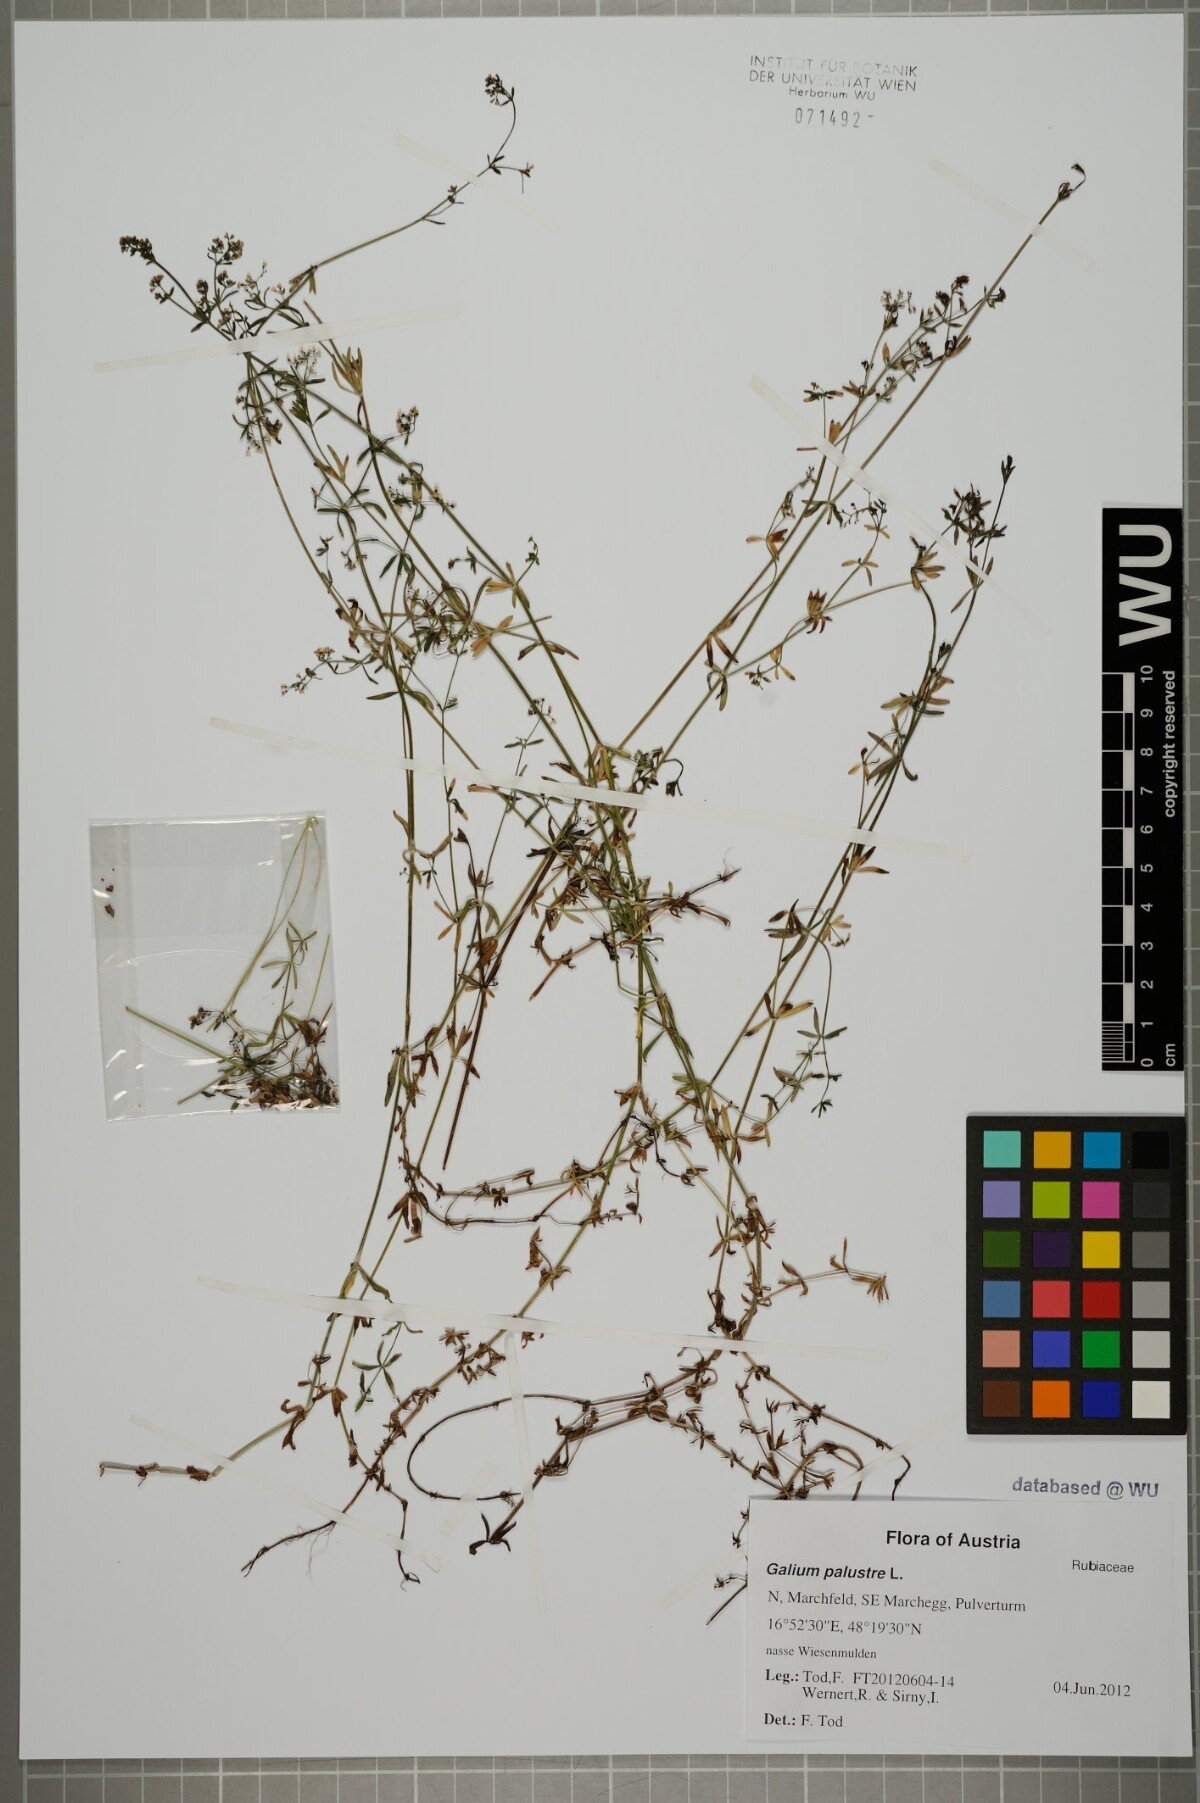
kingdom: Plantae
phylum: Tracheophyta
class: Magnoliopsida
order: Gentianales
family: Rubiaceae
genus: Galium
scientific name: Galium palustre
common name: Common marsh-bedstraw
